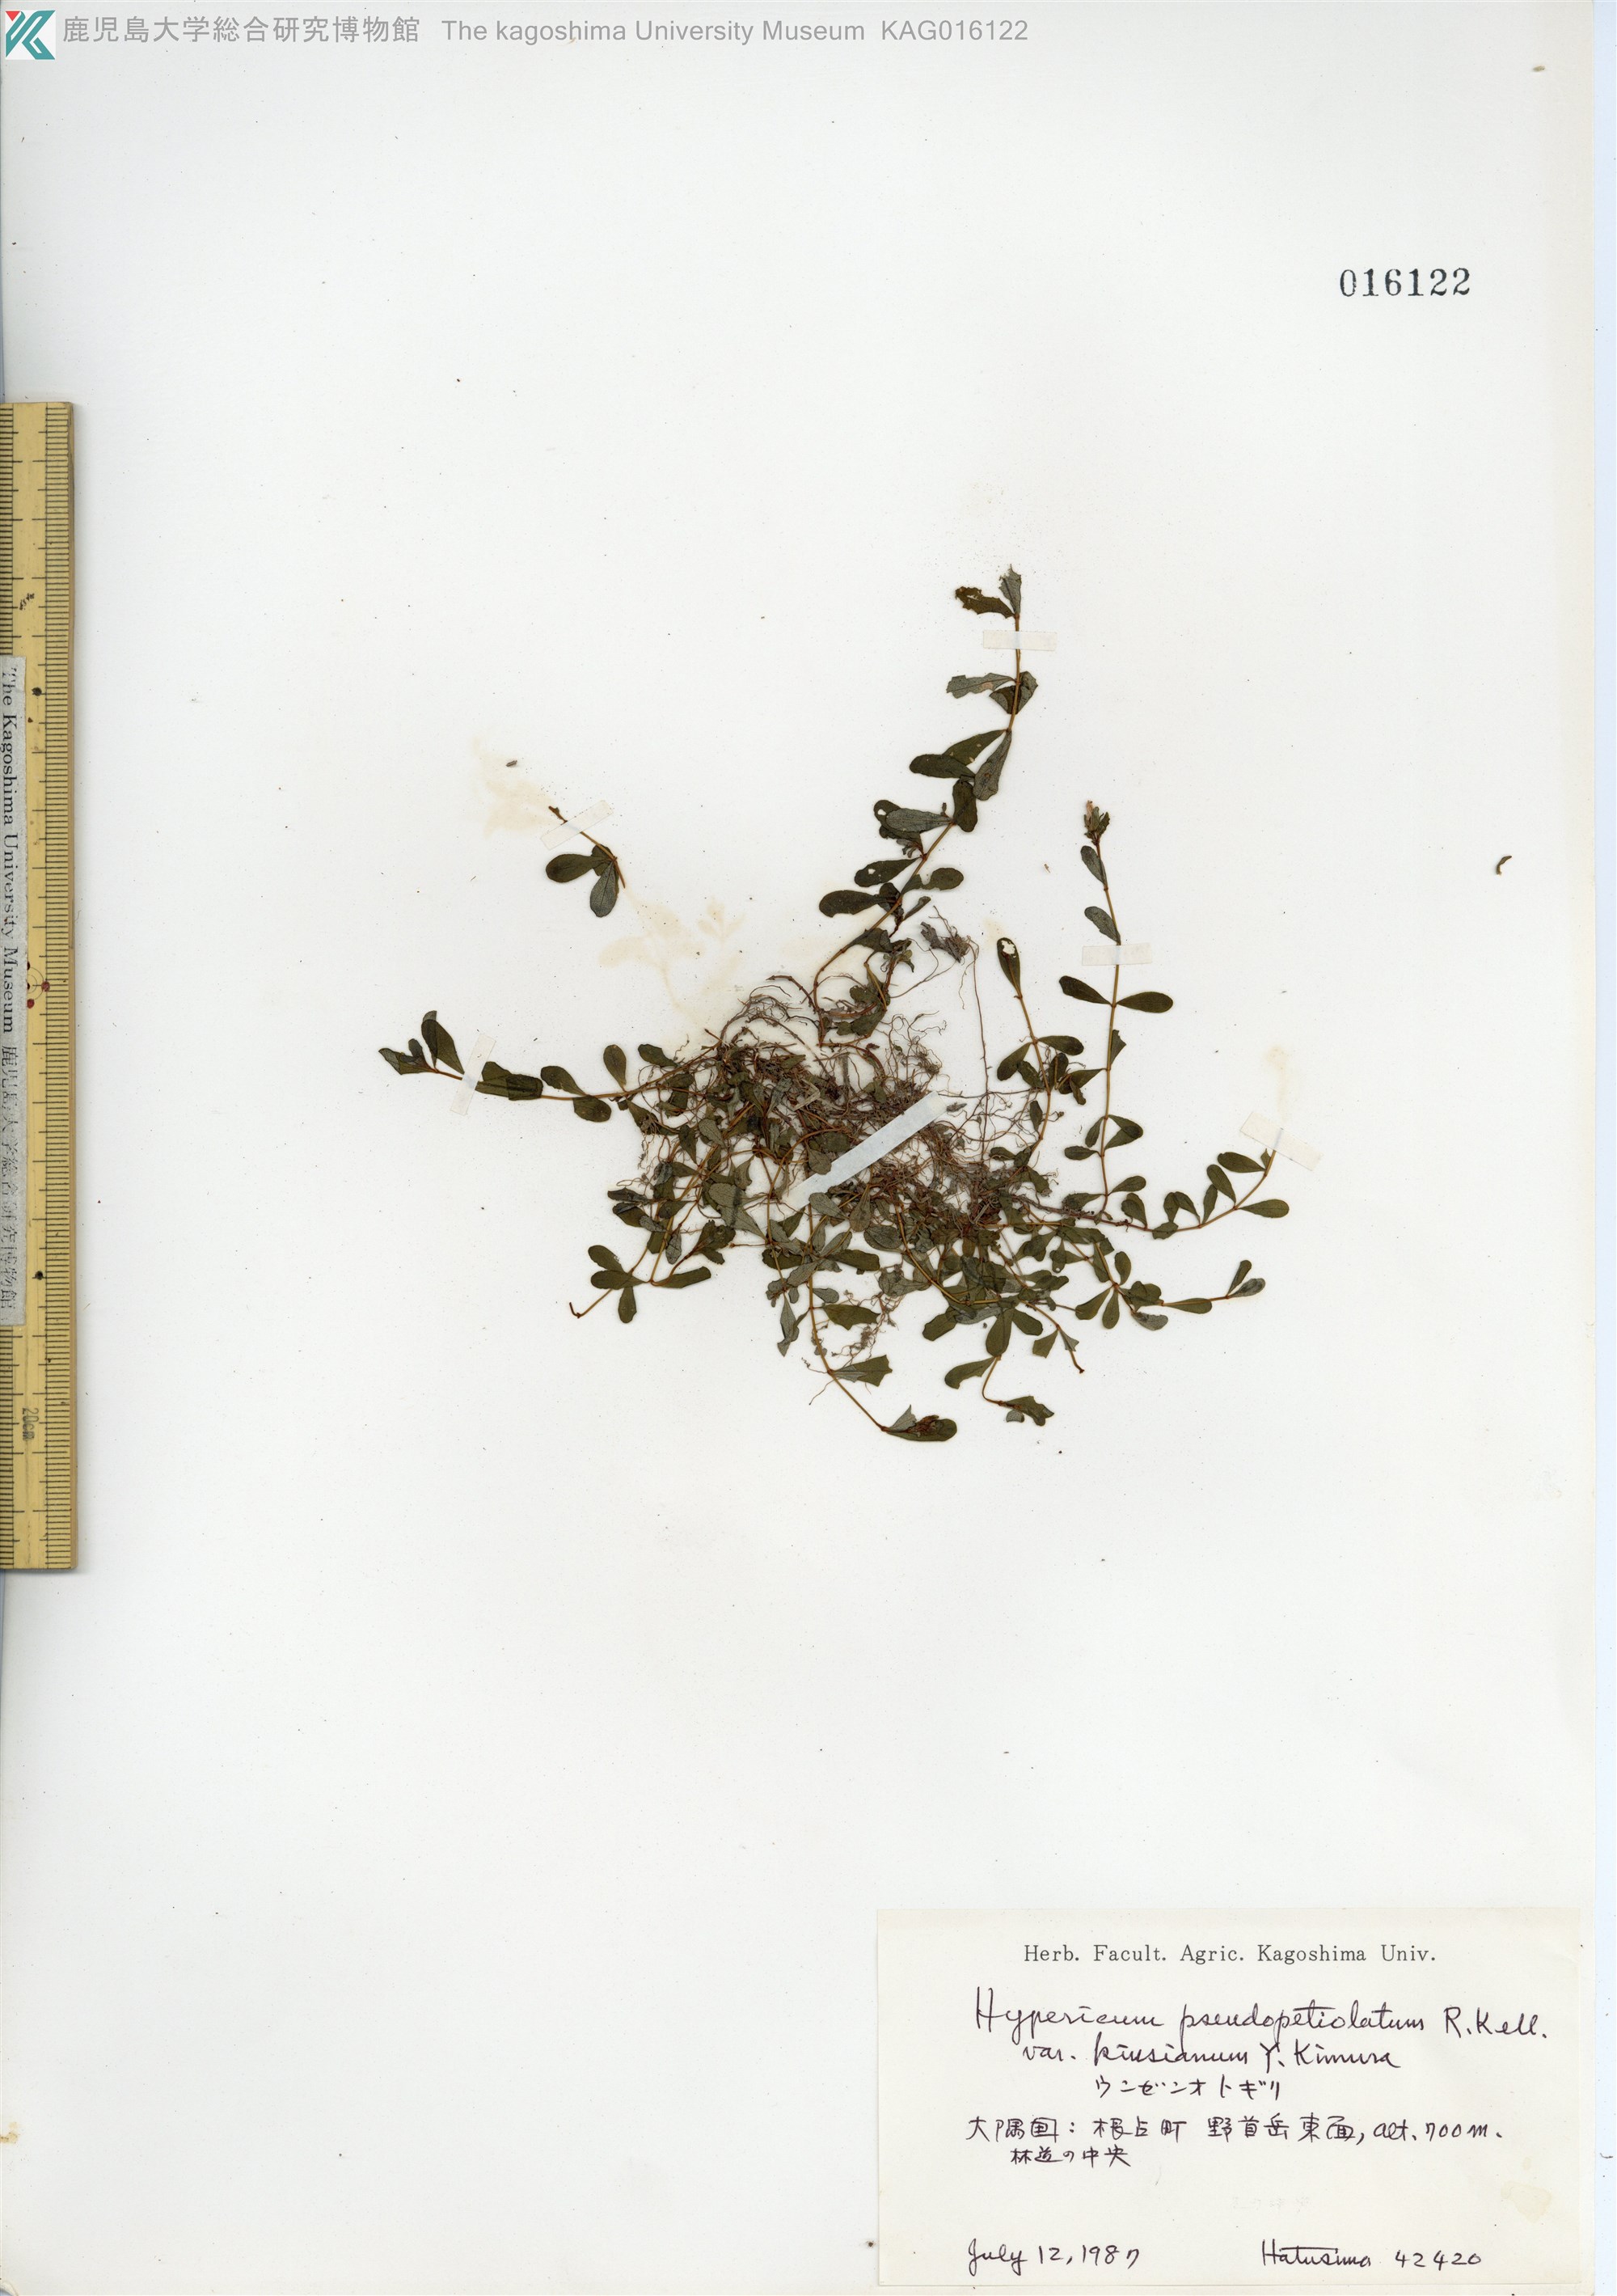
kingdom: Plantae
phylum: Tracheophyta
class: Magnoliopsida
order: Malpighiales
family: Hypericaceae
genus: Hypericum
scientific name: Hypericum pseudopetiolatum
